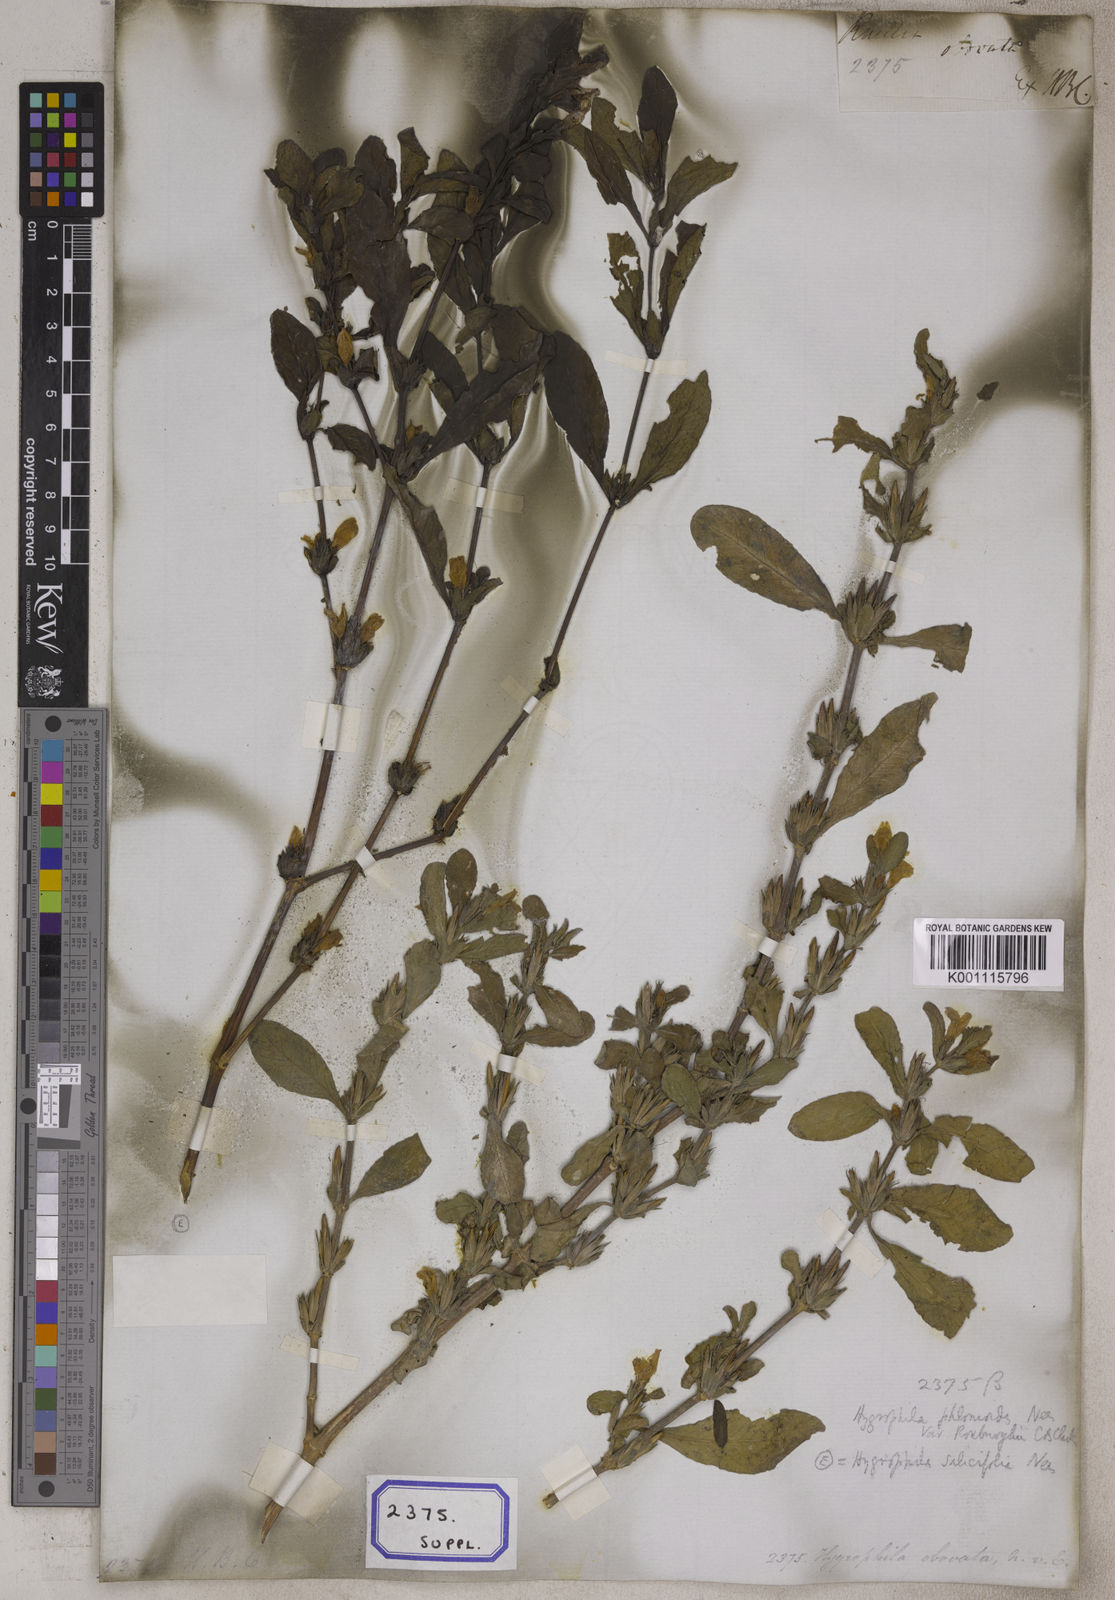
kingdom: Plantae
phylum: Tracheophyta
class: Magnoliopsida
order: Lamiales
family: Acanthaceae
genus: Ruellia
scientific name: Ruellia
